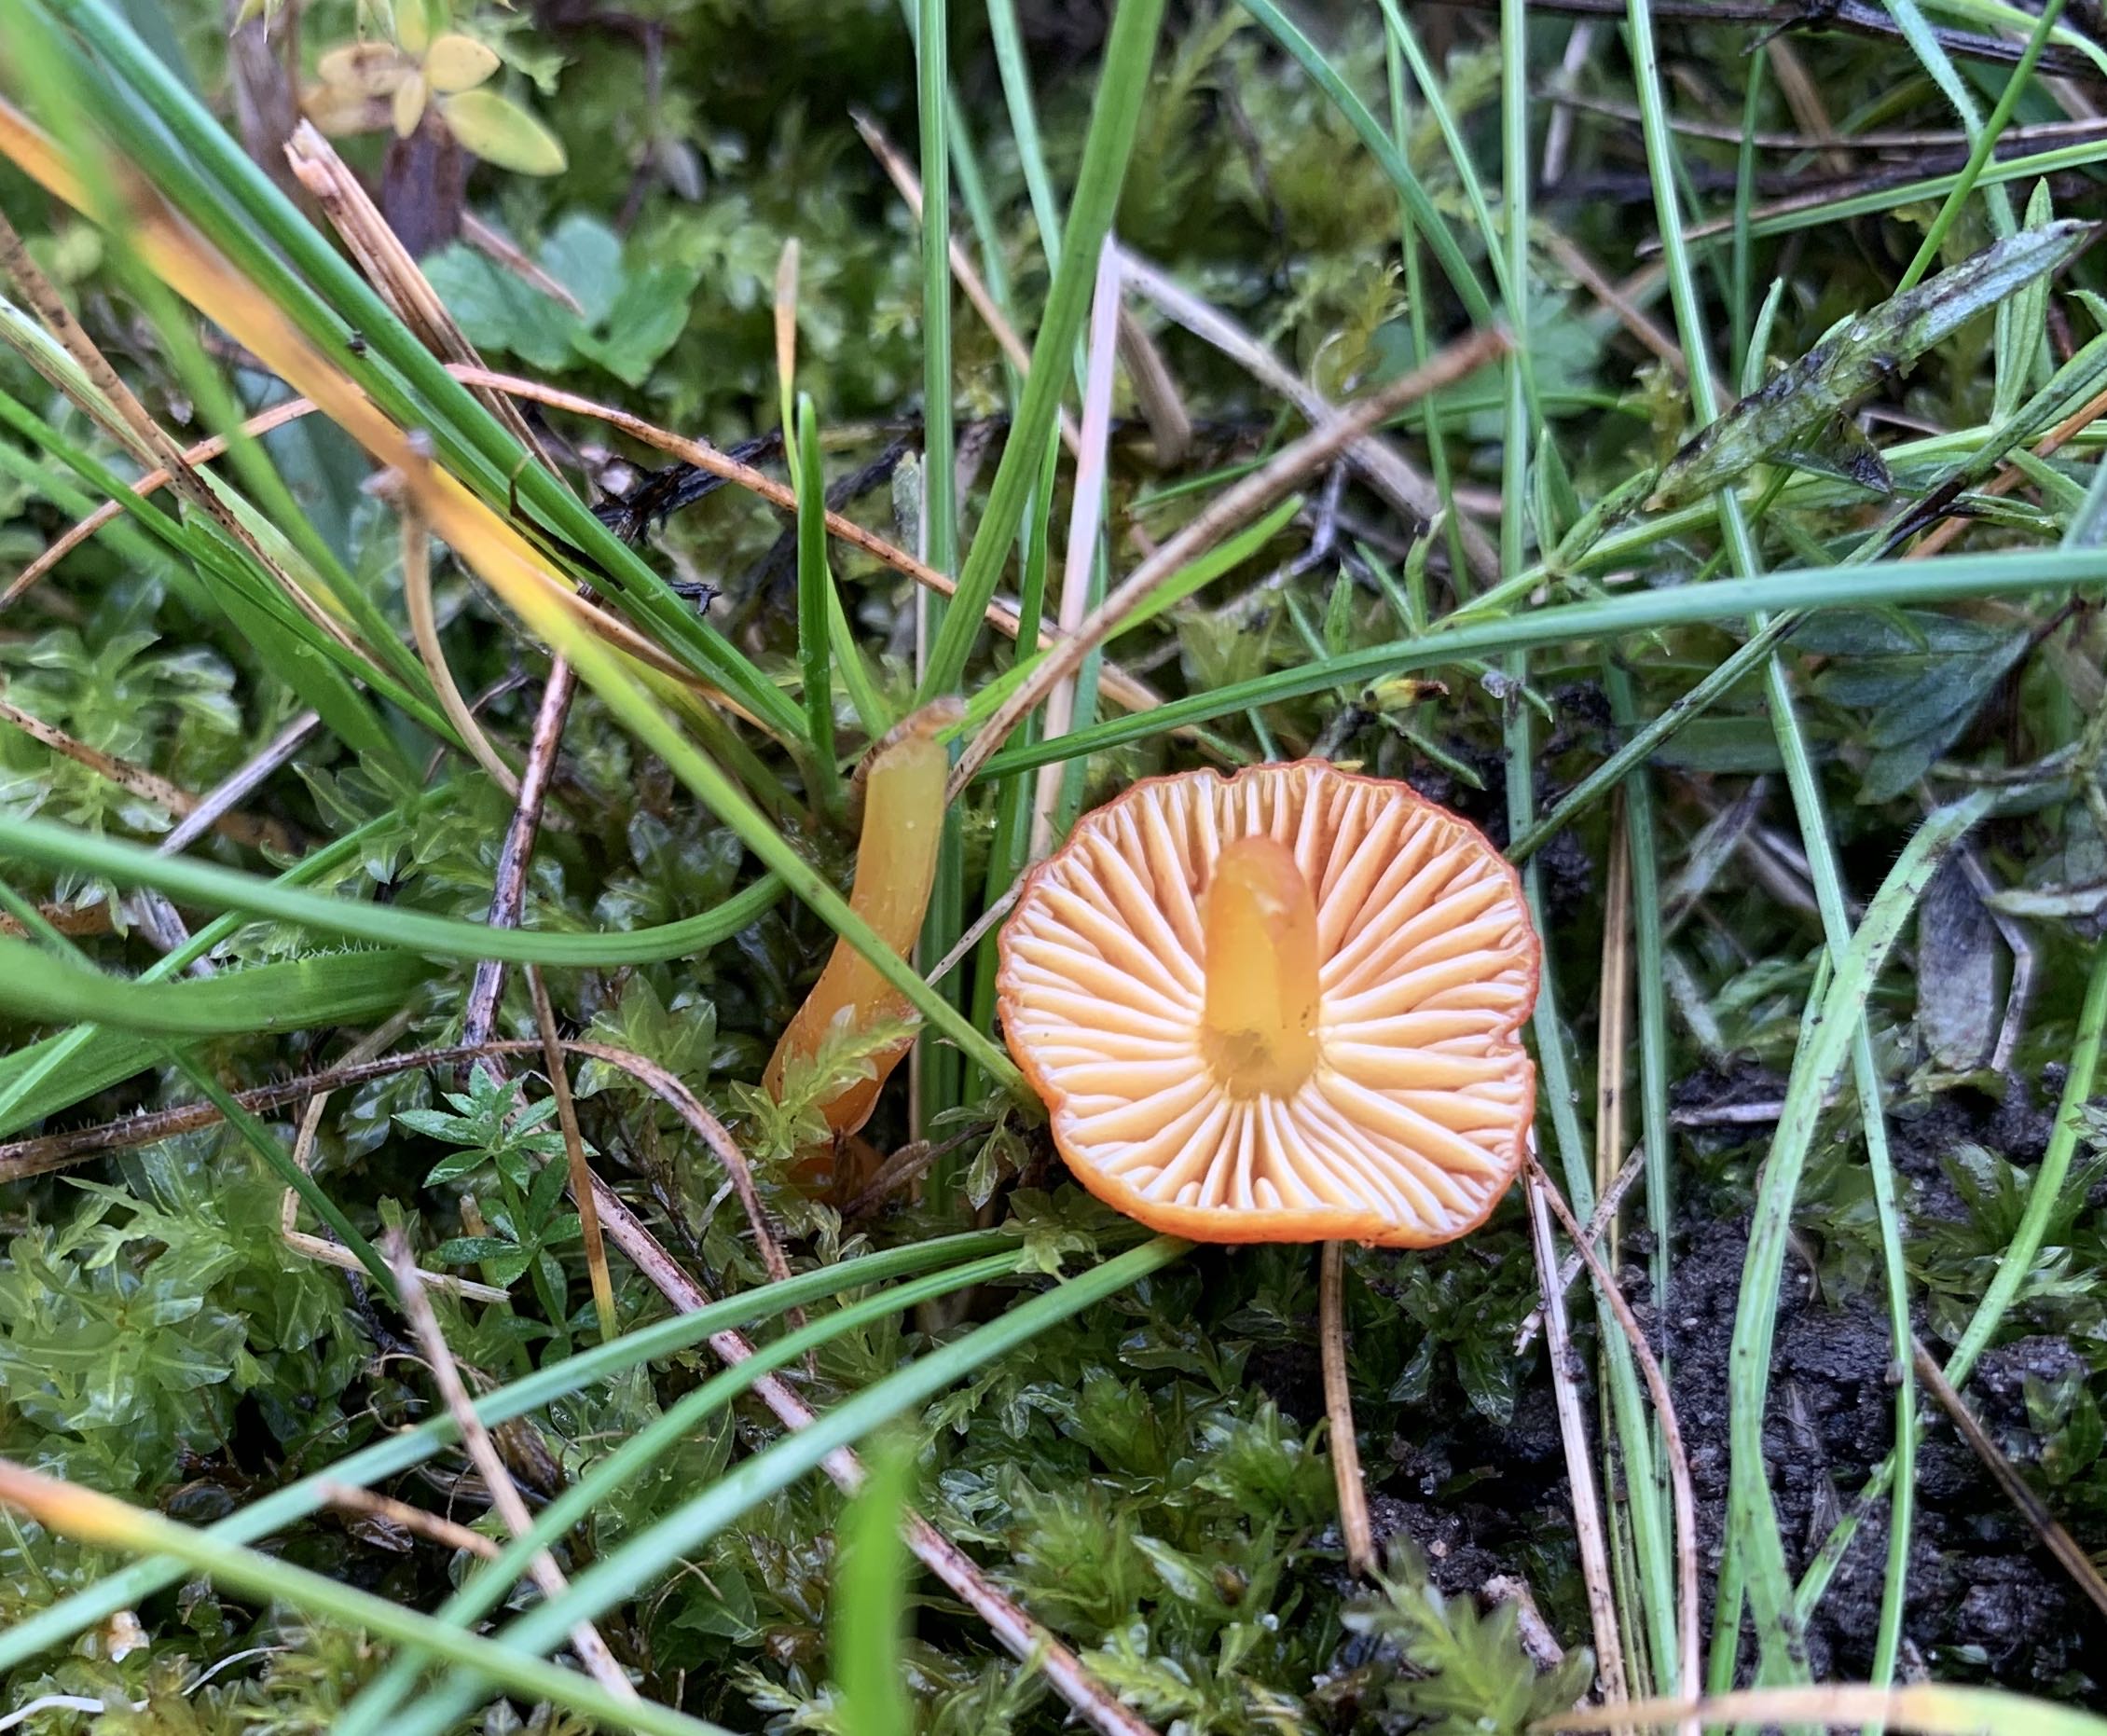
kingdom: Fungi
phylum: Basidiomycota
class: Agaricomycetes
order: Agaricales
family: Hygrophoraceae
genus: Hygrocybe
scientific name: Hygrocybe insipida
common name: liden vokshat
